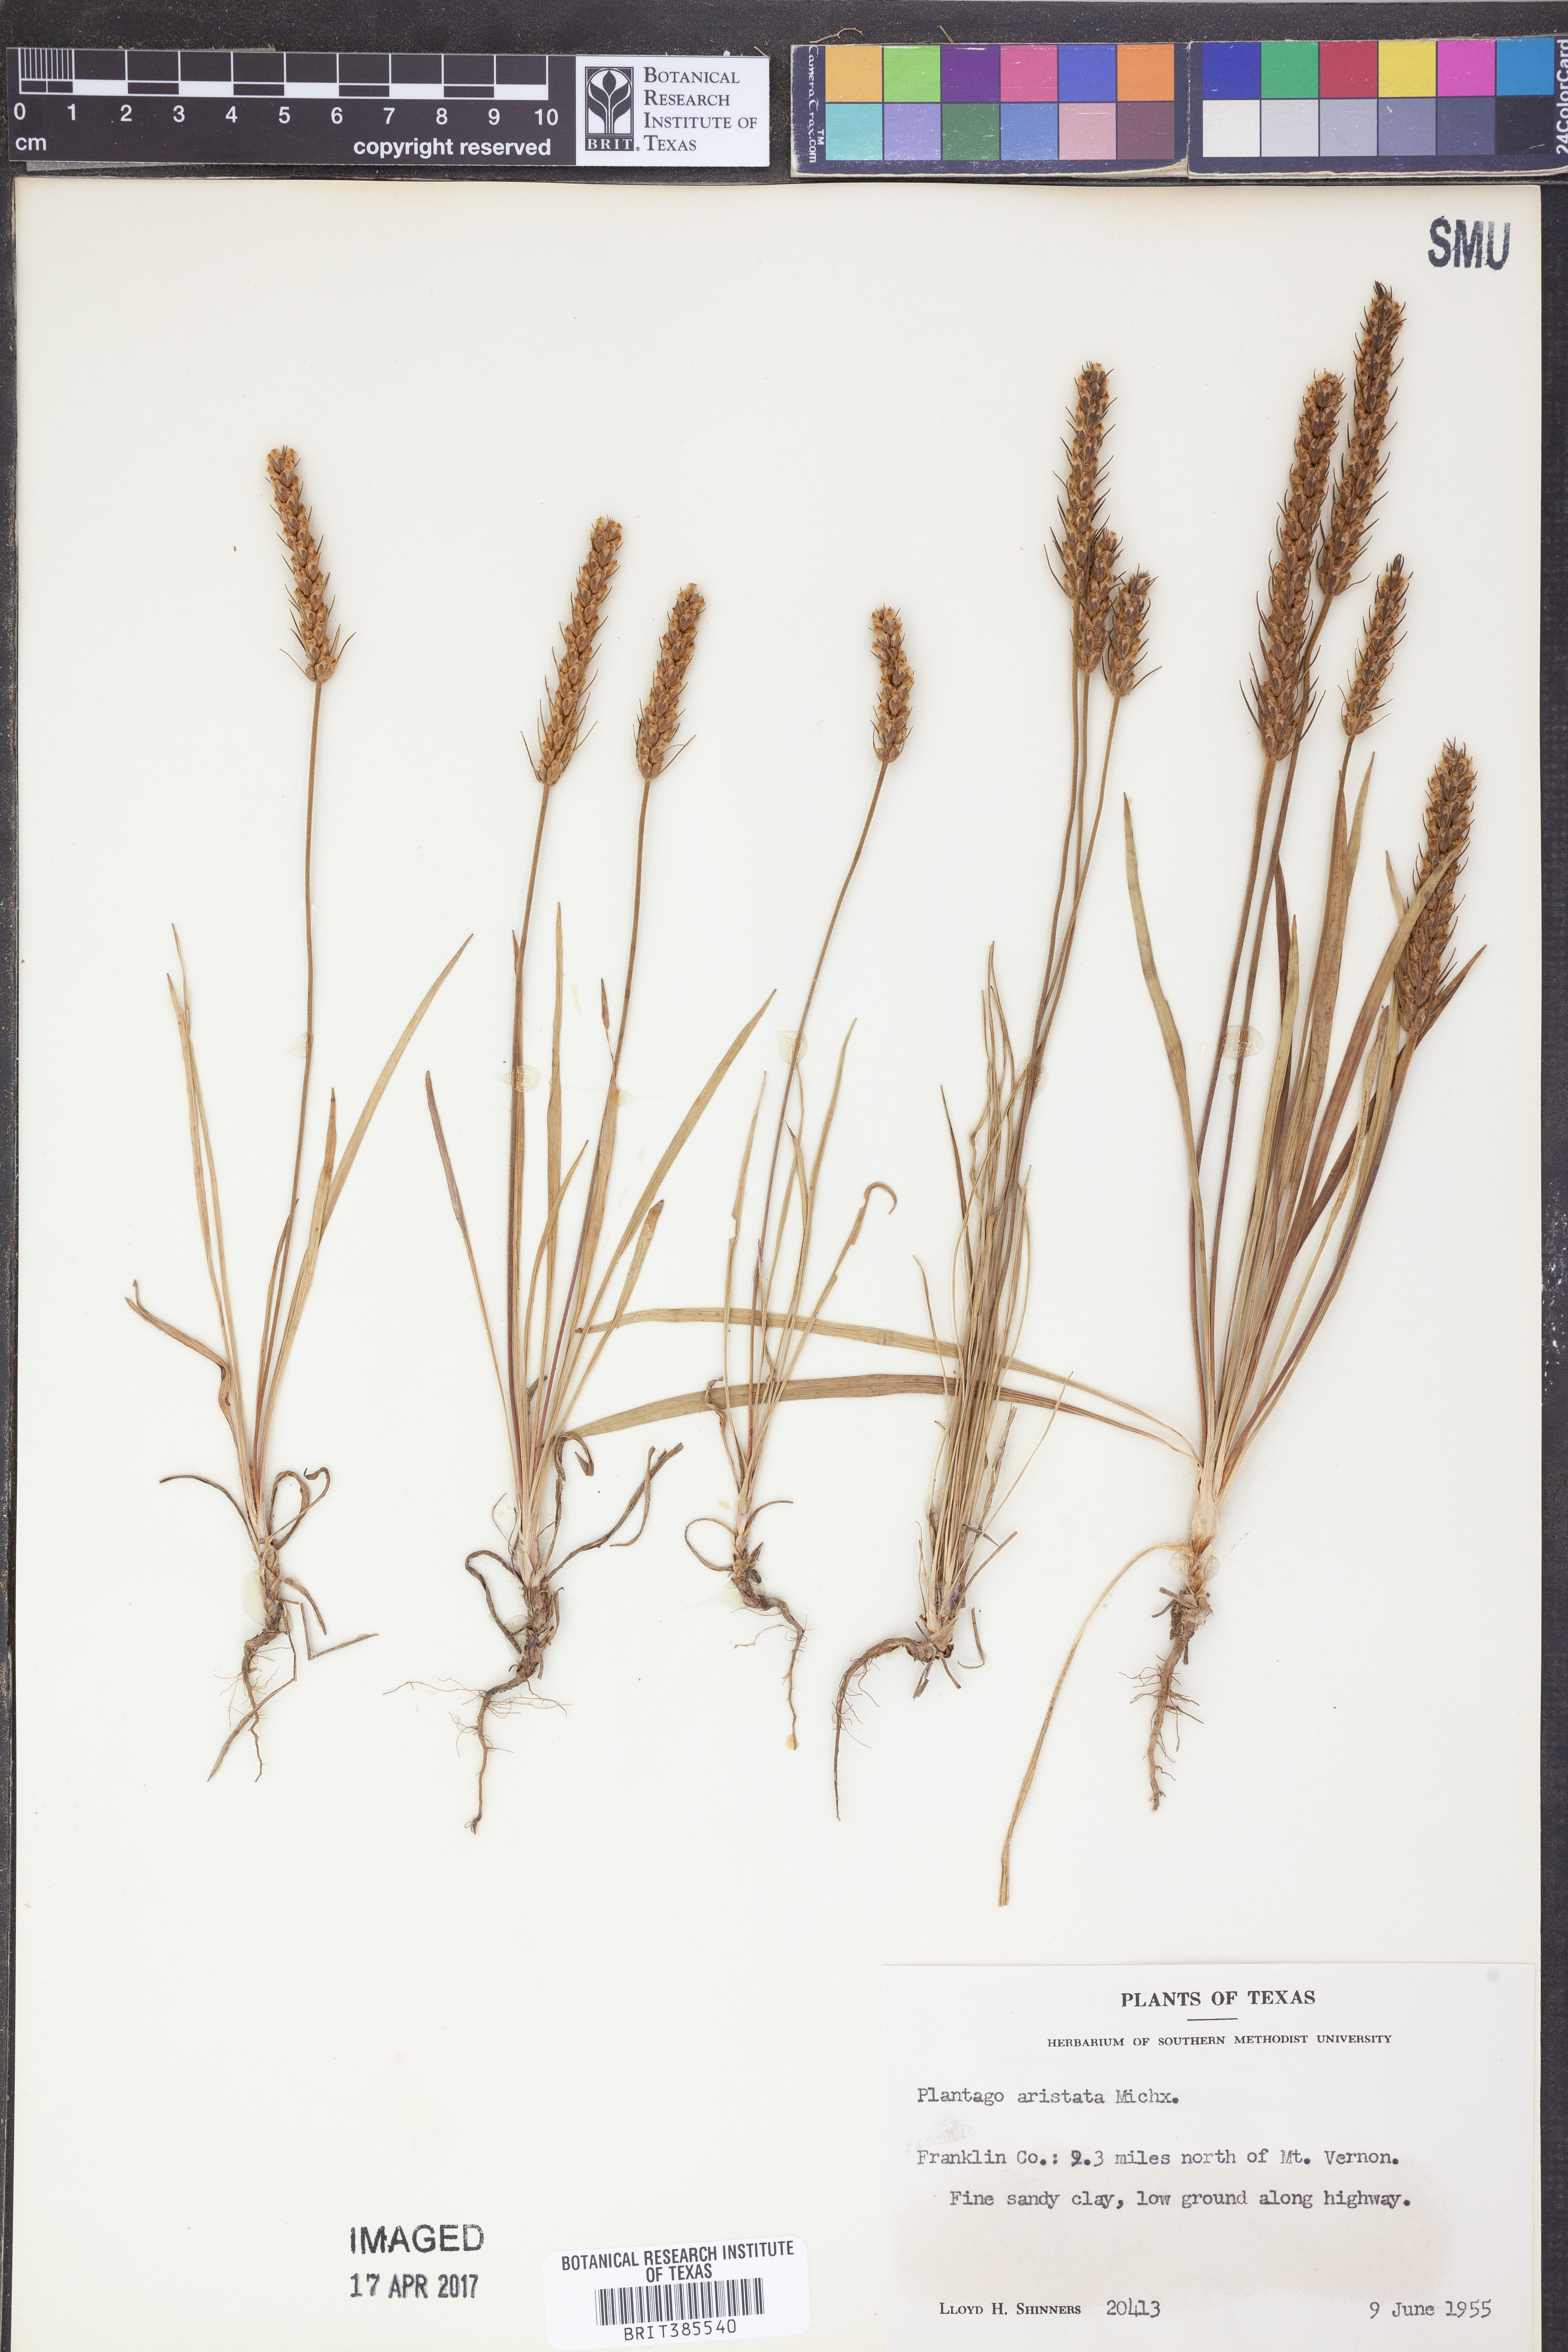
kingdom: Plantae
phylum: Tracheophyta
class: Magnoliopsida
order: Lamiales
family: Plantaginaceae
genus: Plantago
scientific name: Plantago aristata
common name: Bracted plantain
